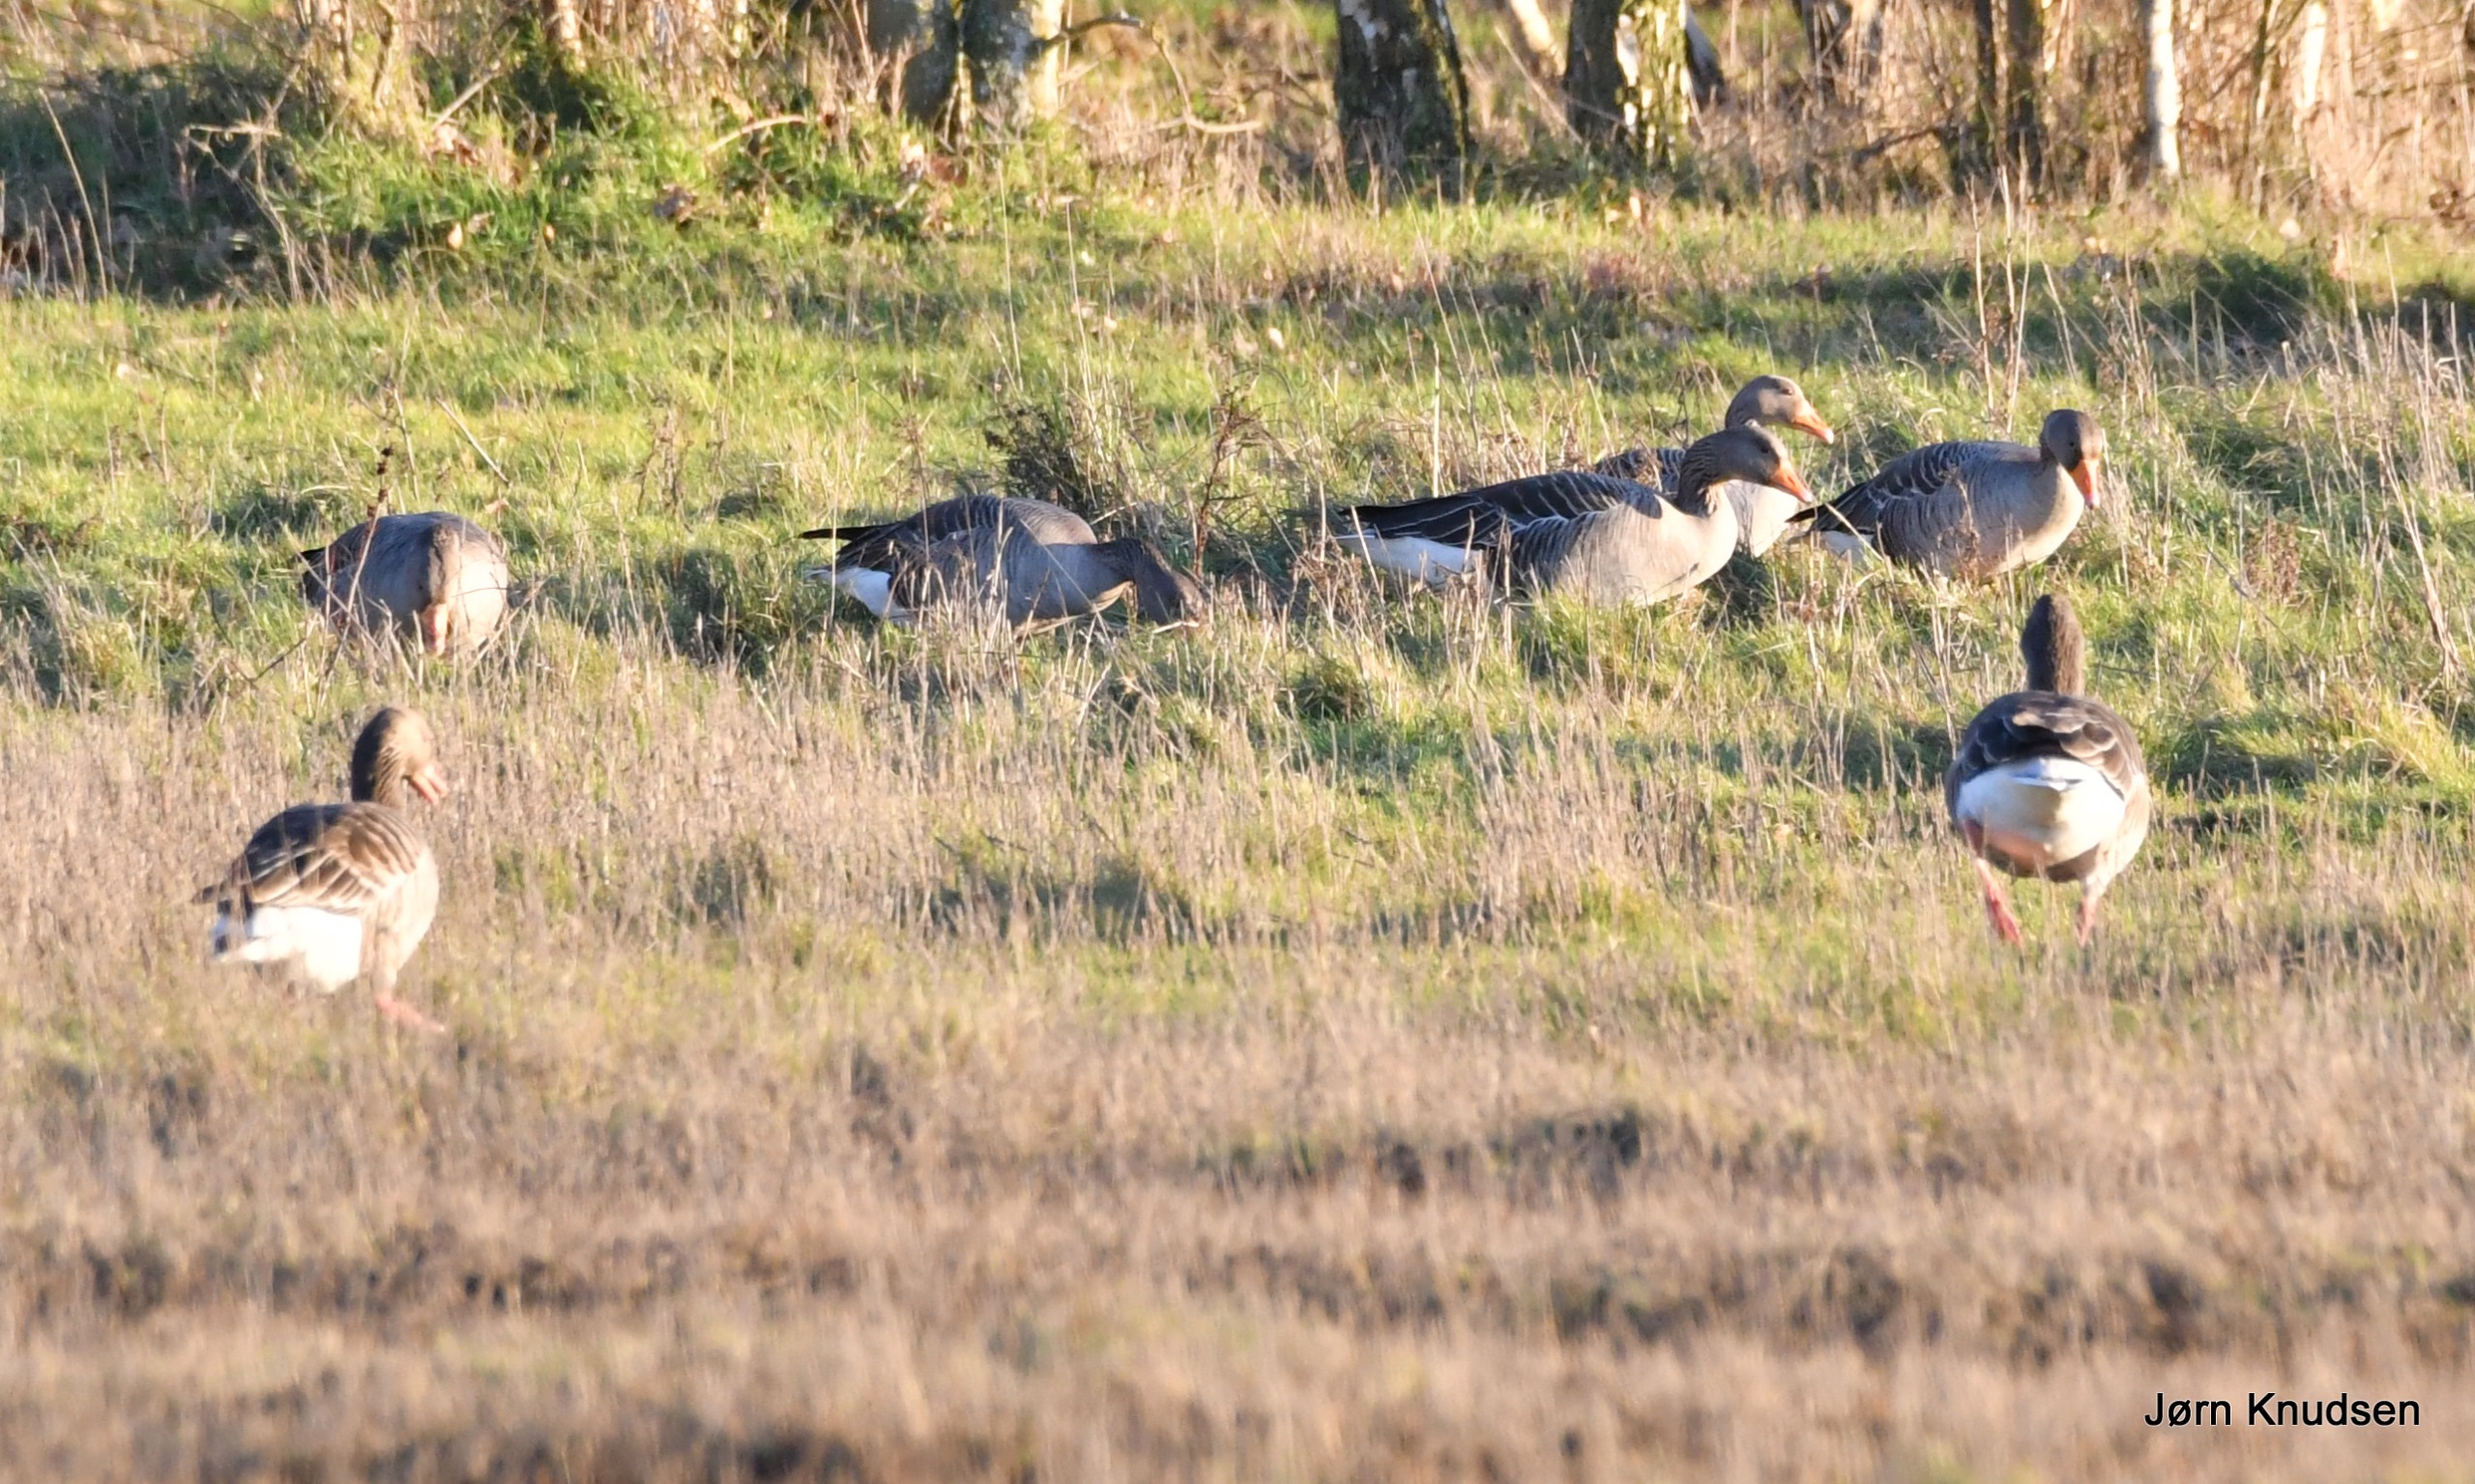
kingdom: Animalia
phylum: Chordata
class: Aves
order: Anseriformes
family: Anatidae
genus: Anser
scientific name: Anser anser
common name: Grågås
